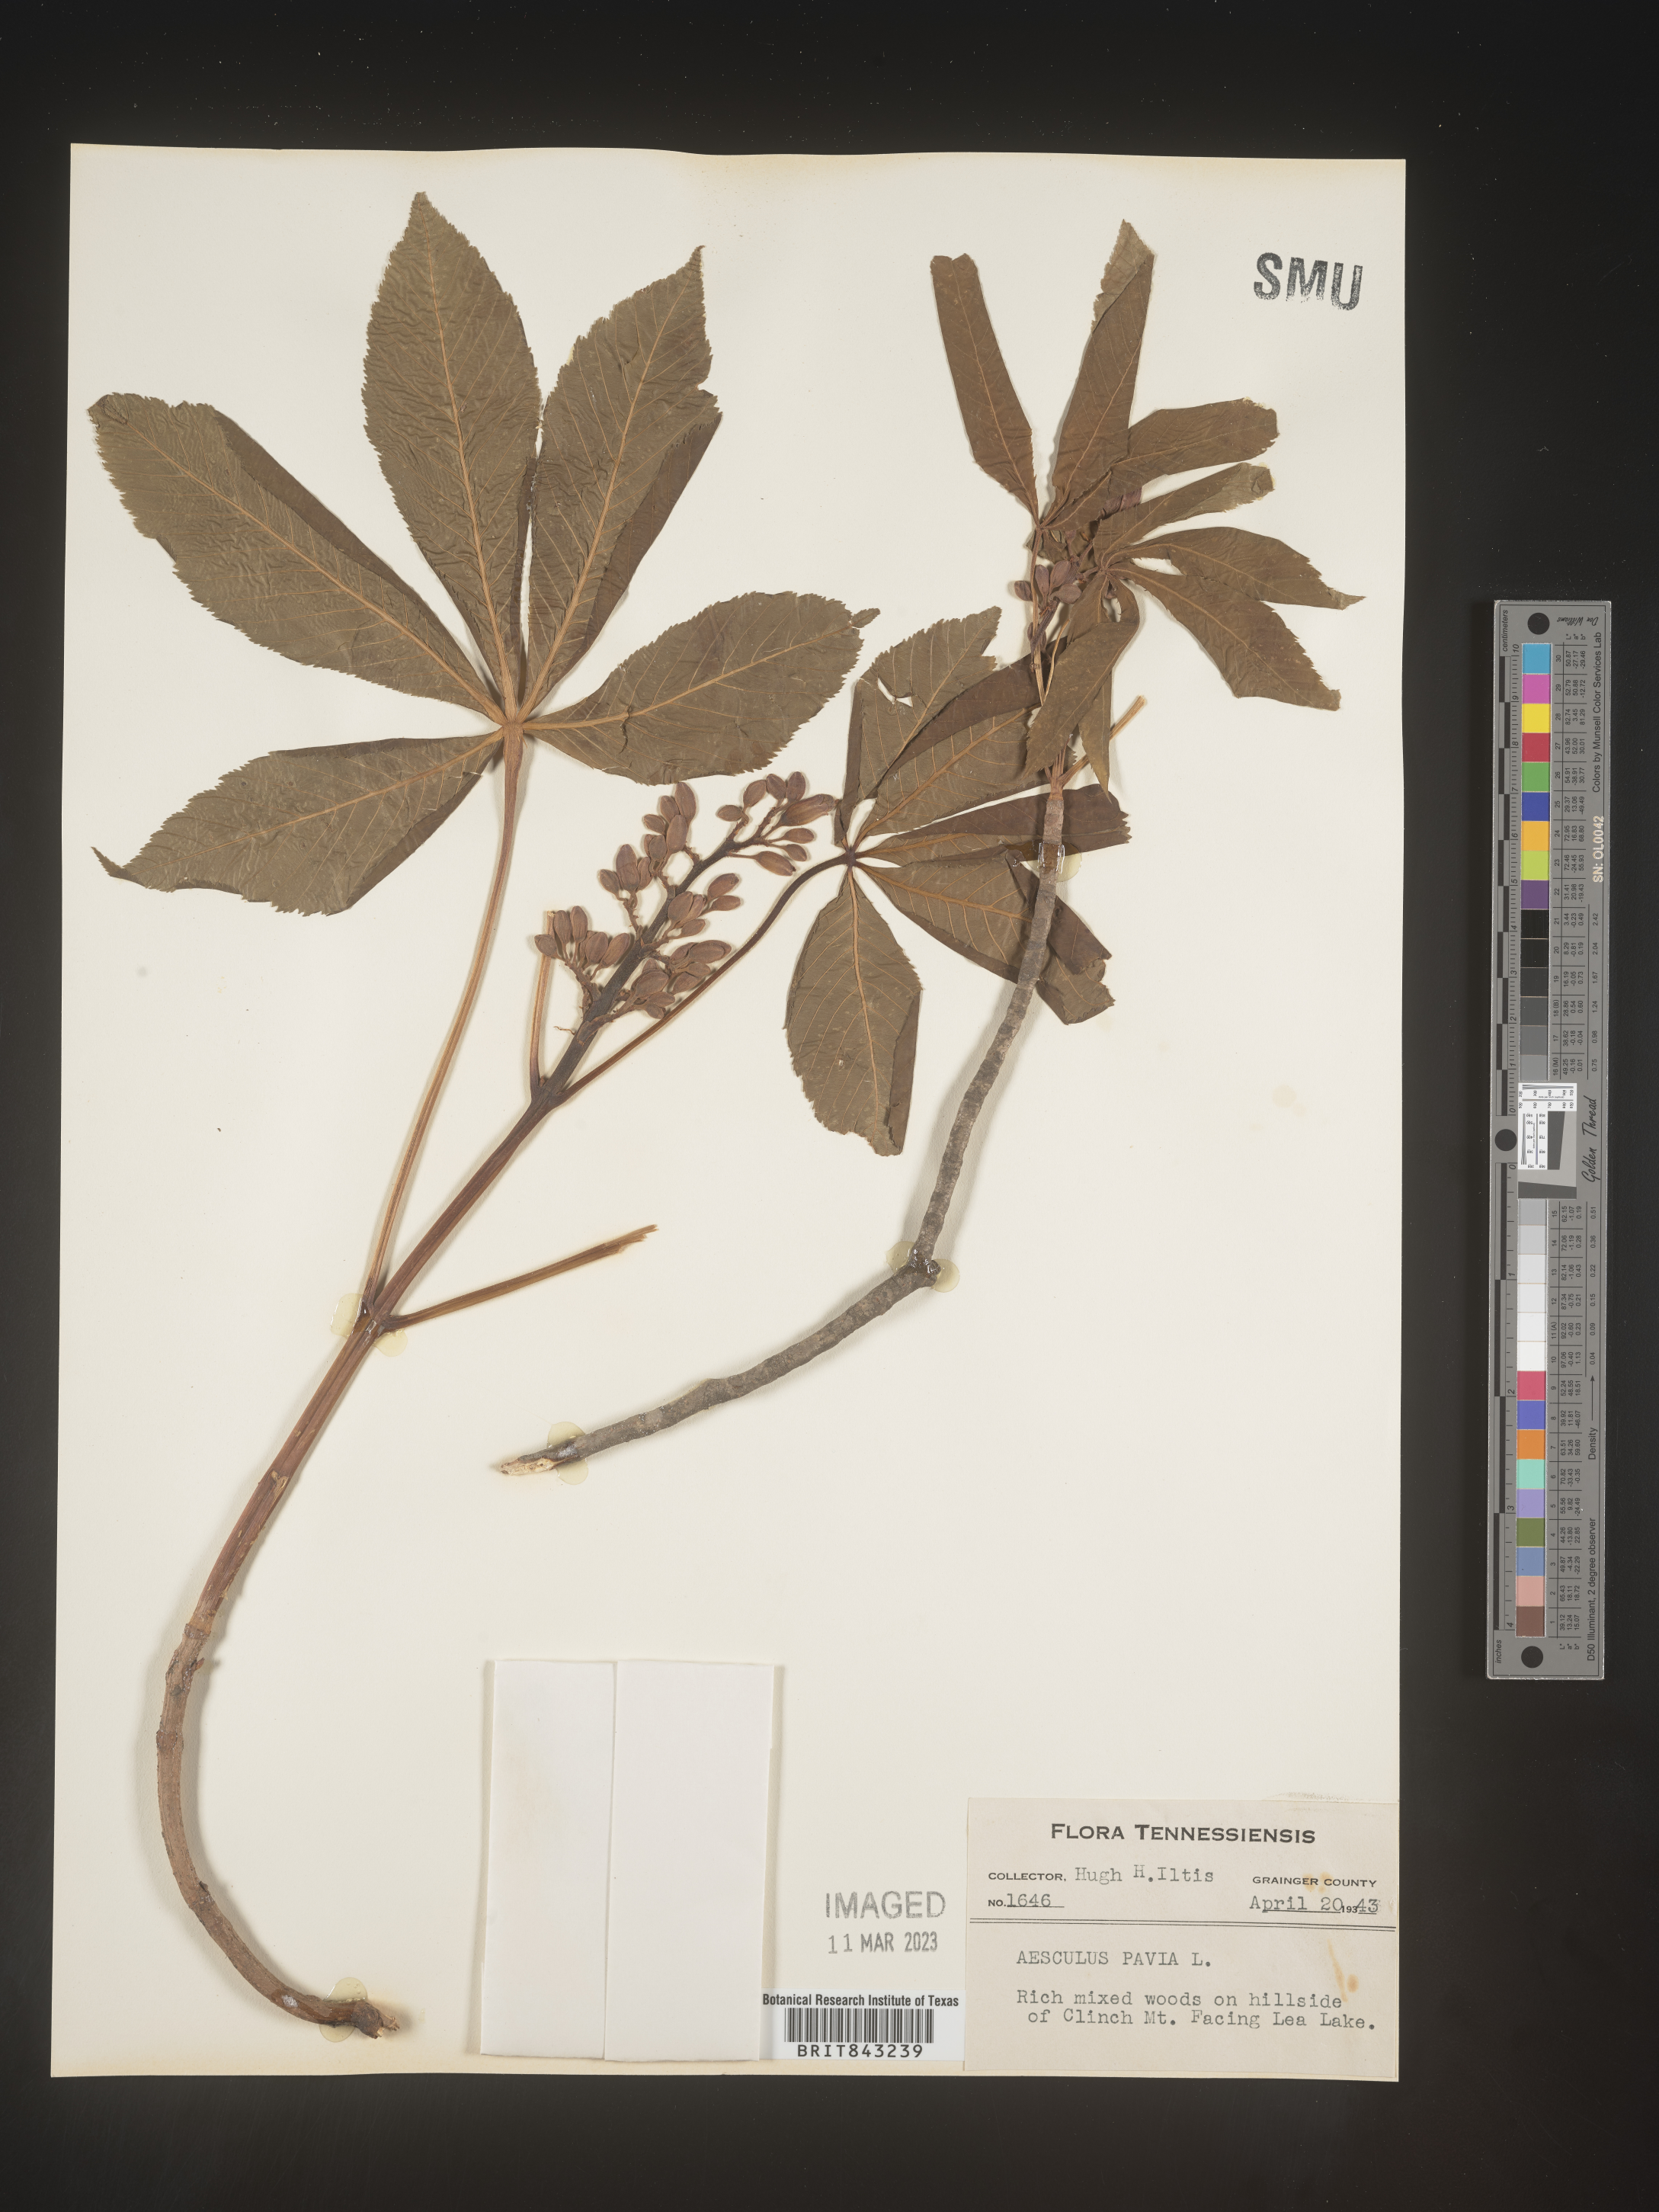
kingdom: Plantae
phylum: Tracheophyta
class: Magnoliopsida
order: Sapindales
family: Sapindaceae
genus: Aesculus
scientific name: Aesculus pavia
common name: Red buckeye
